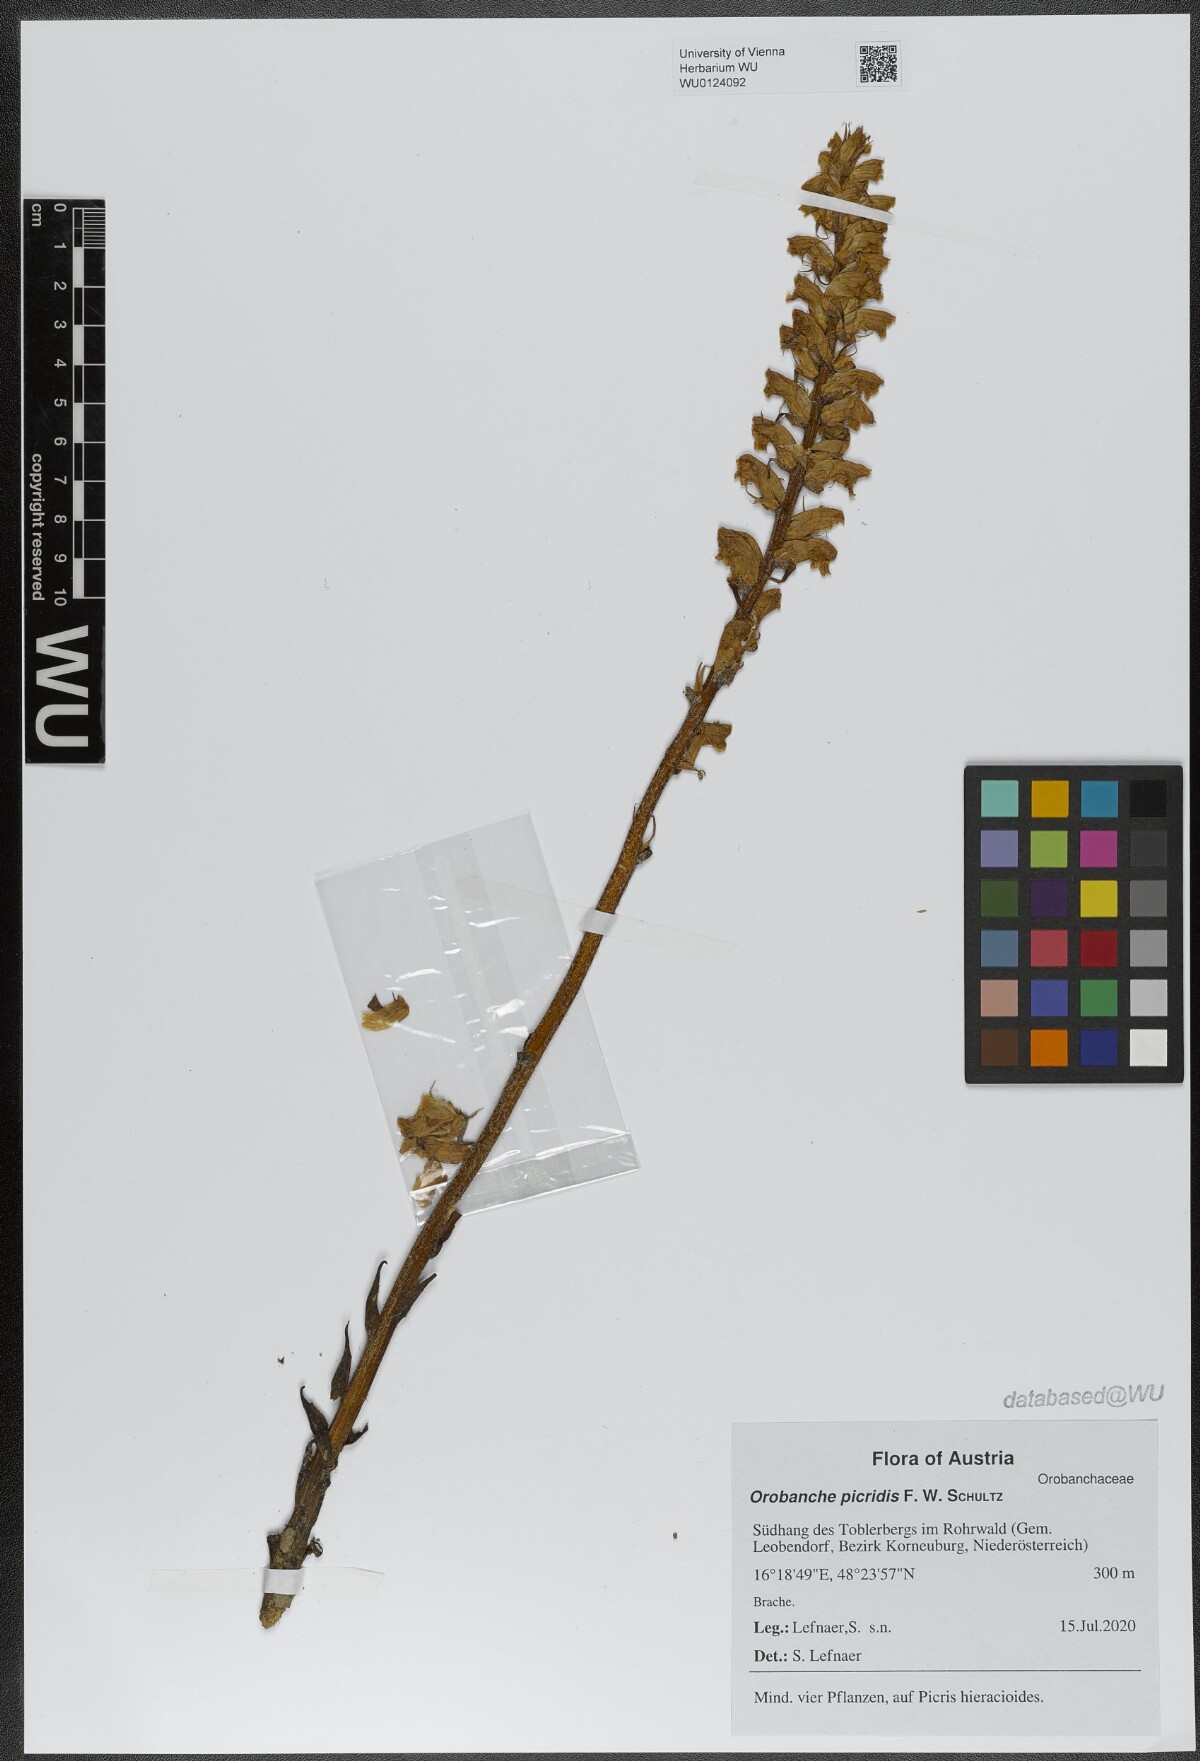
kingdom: Plantae
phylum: Tracheophyta
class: Magnoliopsida
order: Lamiales
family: Orobanchaceae
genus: Orobanche
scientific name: Orobanche picridis
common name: Oxtongue broomrape
